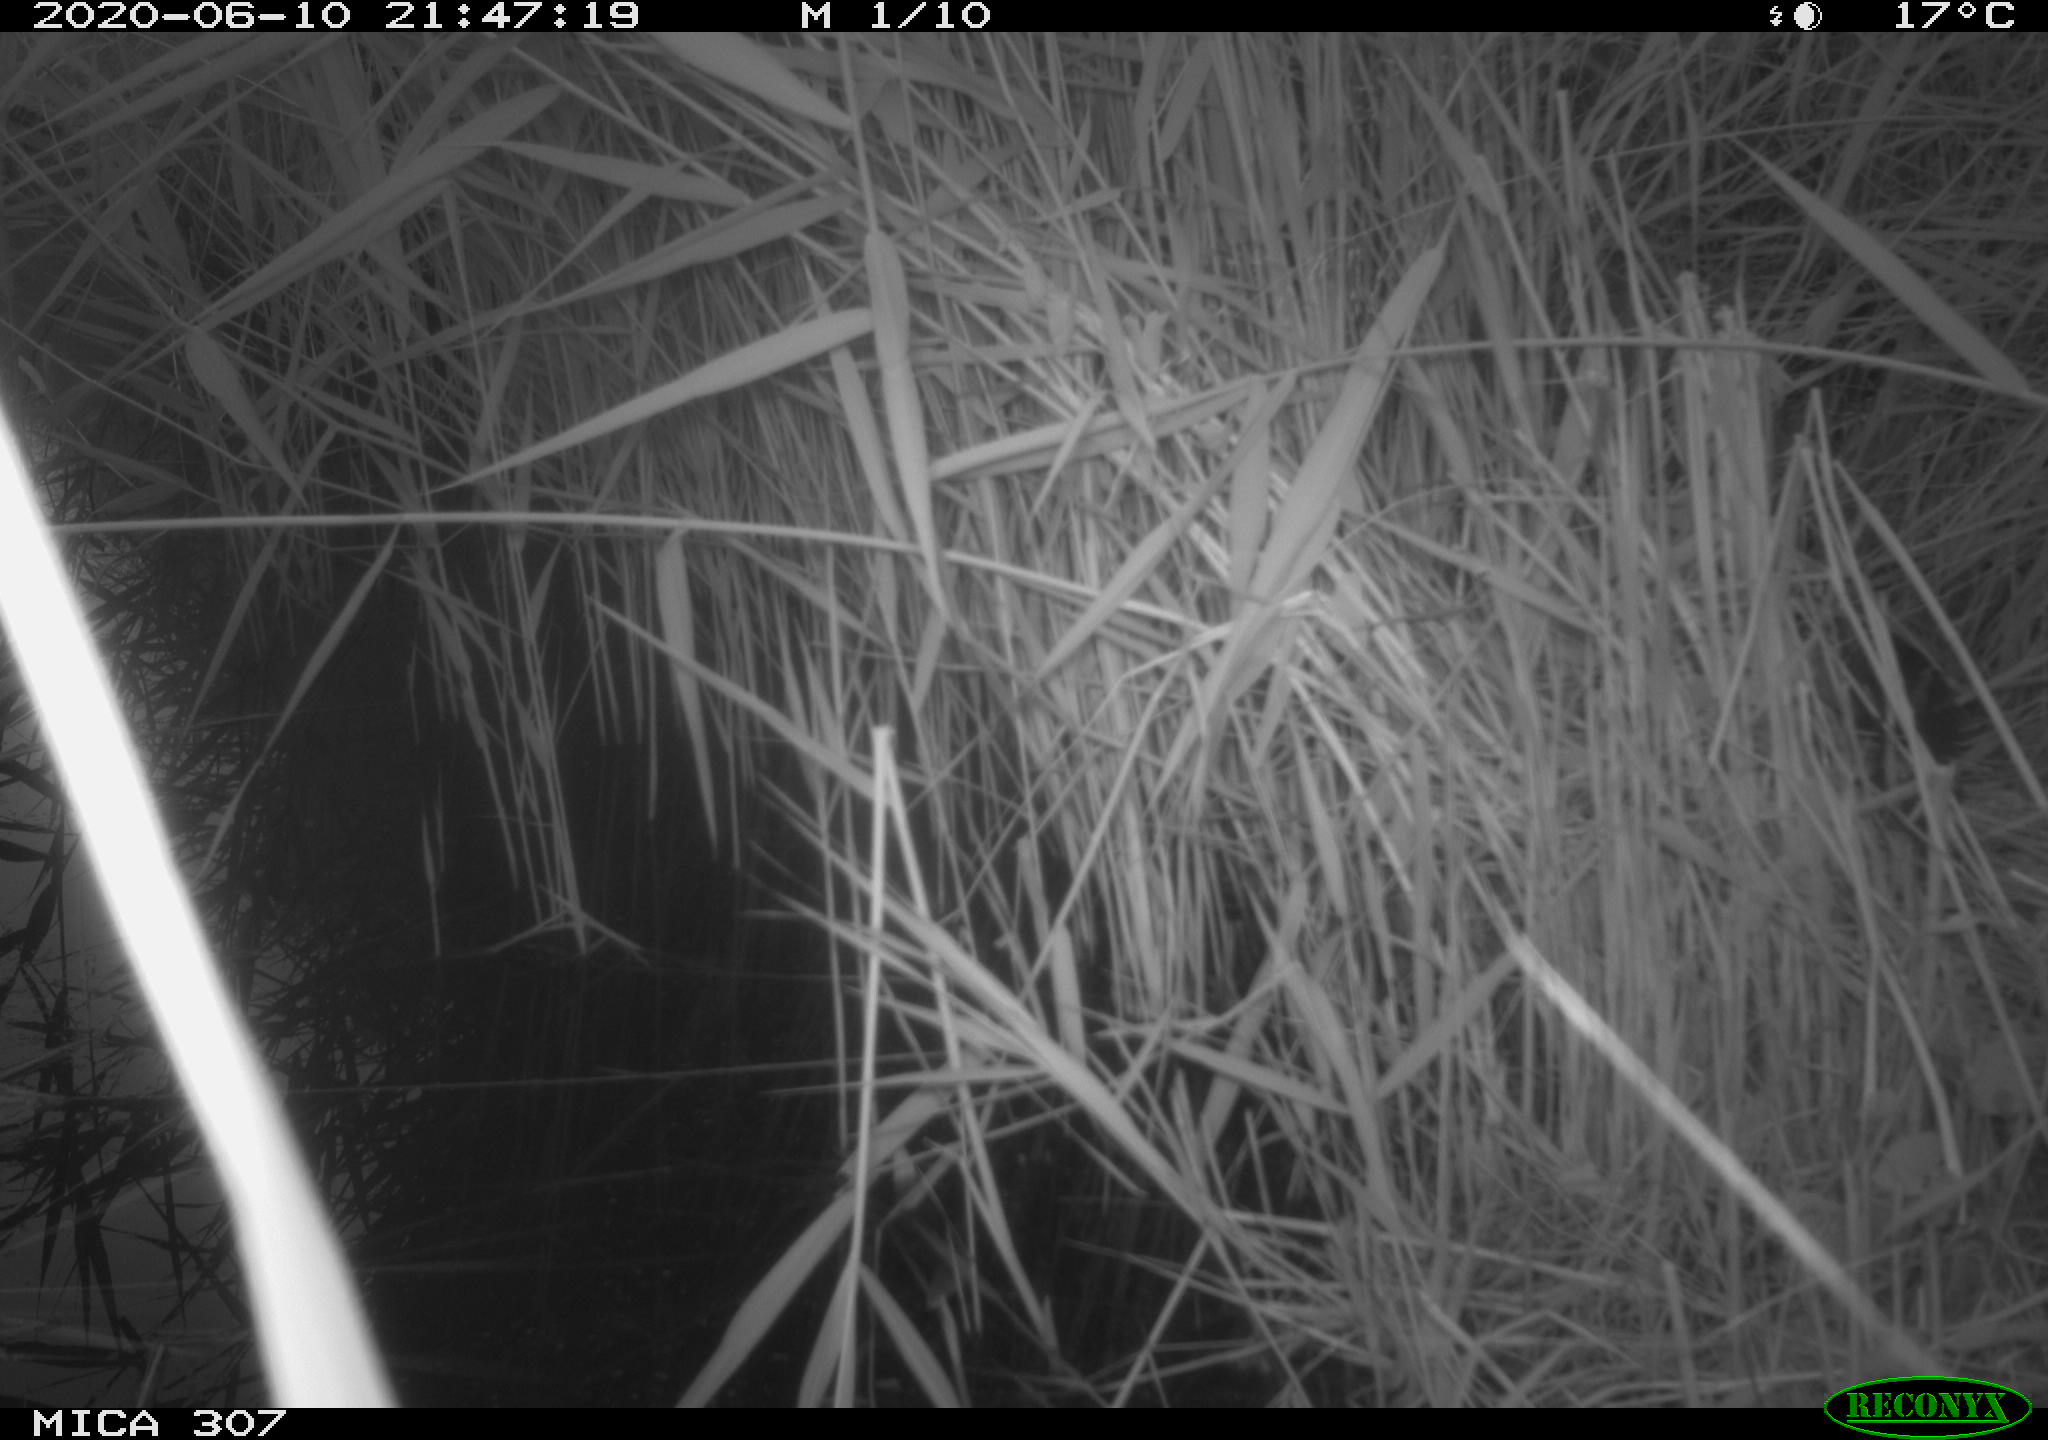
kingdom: Animalia
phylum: Chordata
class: Mammalia
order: Rodentia
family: Muridae
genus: Rattus
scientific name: Rattus norvegicus
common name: Brown rat
